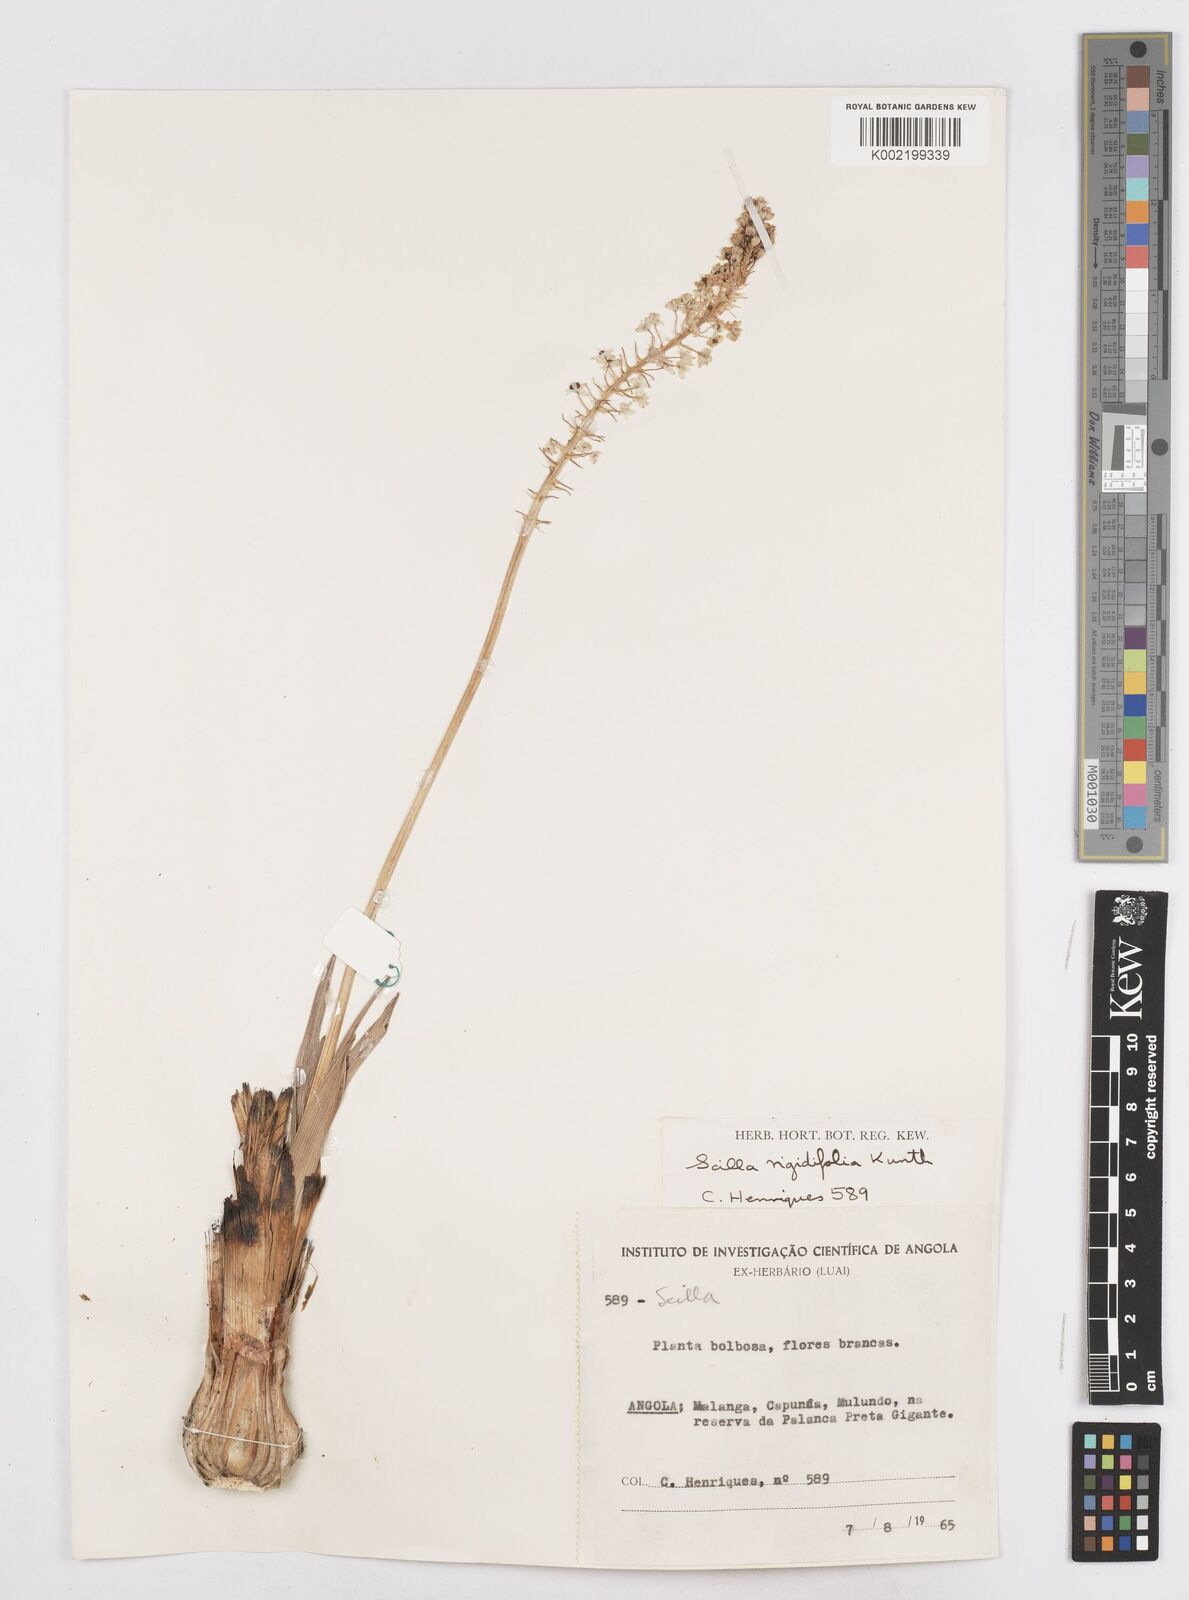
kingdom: Plantae
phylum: Tracheophyta
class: Liliopsida
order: Asparagales
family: Asparagaceae
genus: Schizocarphus
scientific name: Schizocarphus nervosus
